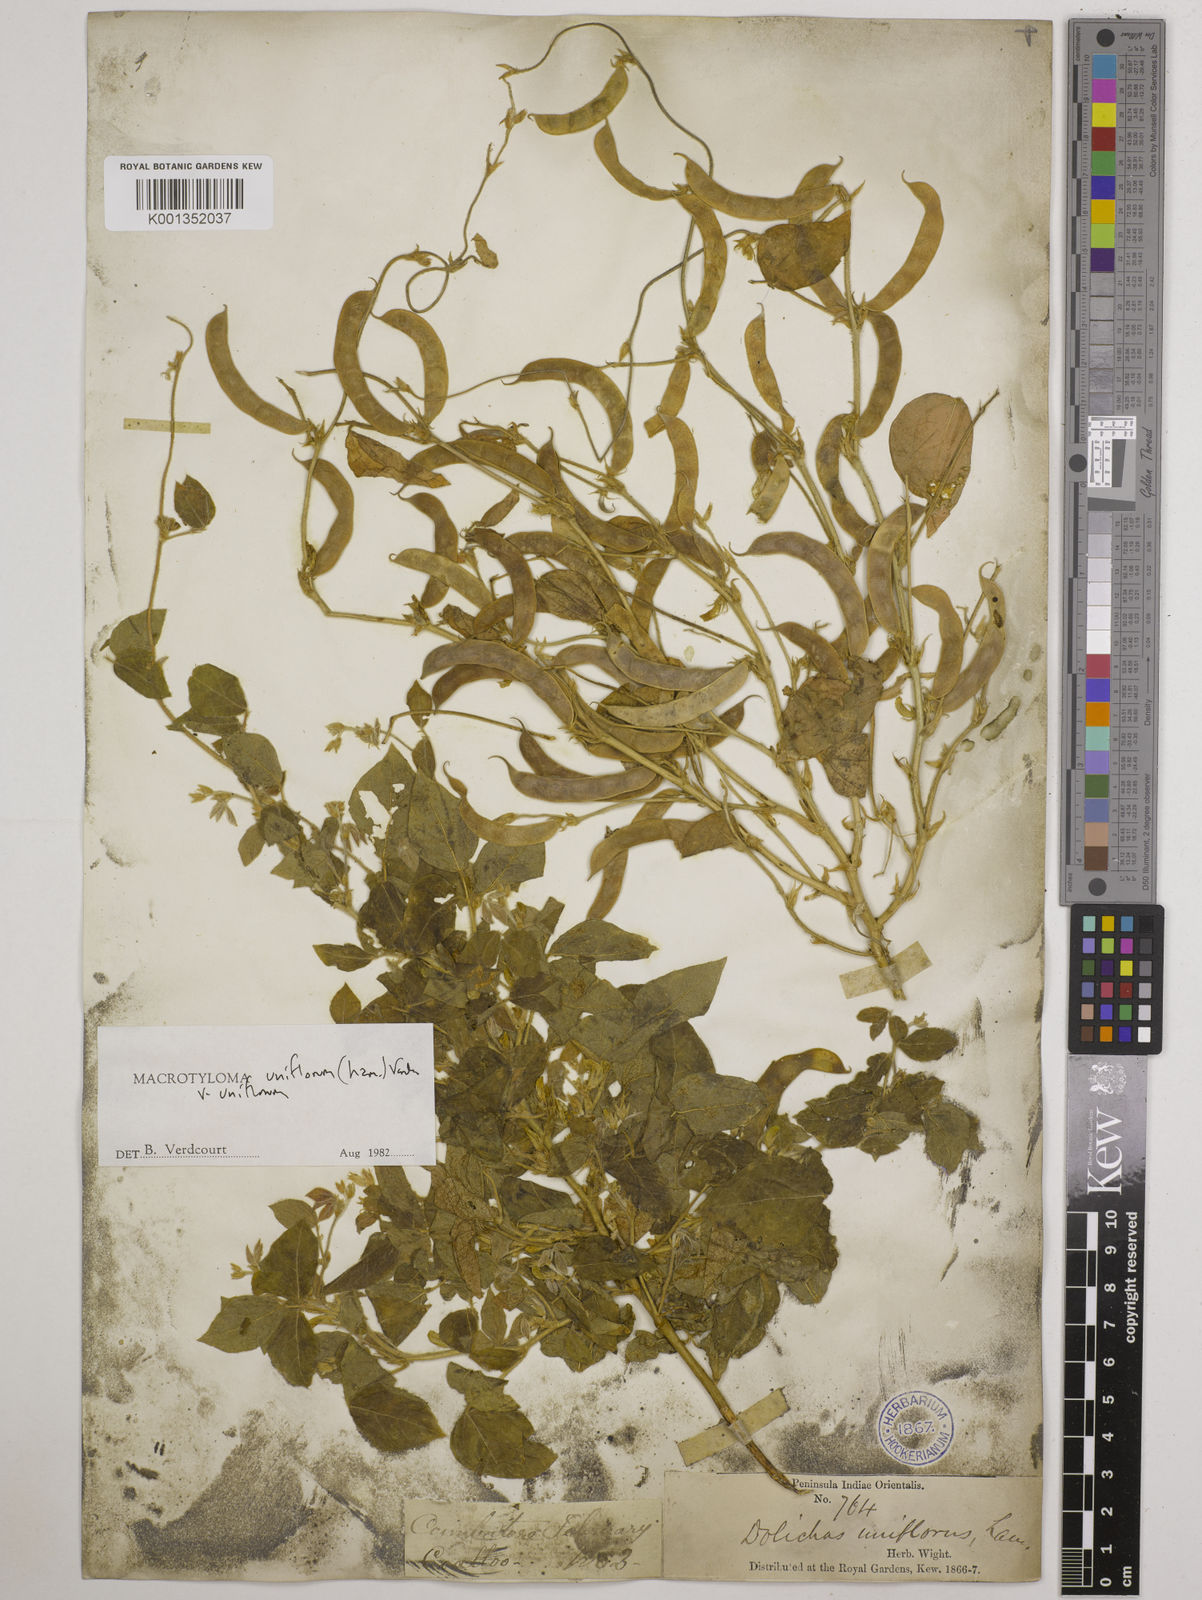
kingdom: Plantae
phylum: Tracheophyta
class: Magnoliopsida
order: Fabales
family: Fabaceae
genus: Macrotyloma
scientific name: Macrotyloma uniflorum
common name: Horse gram
